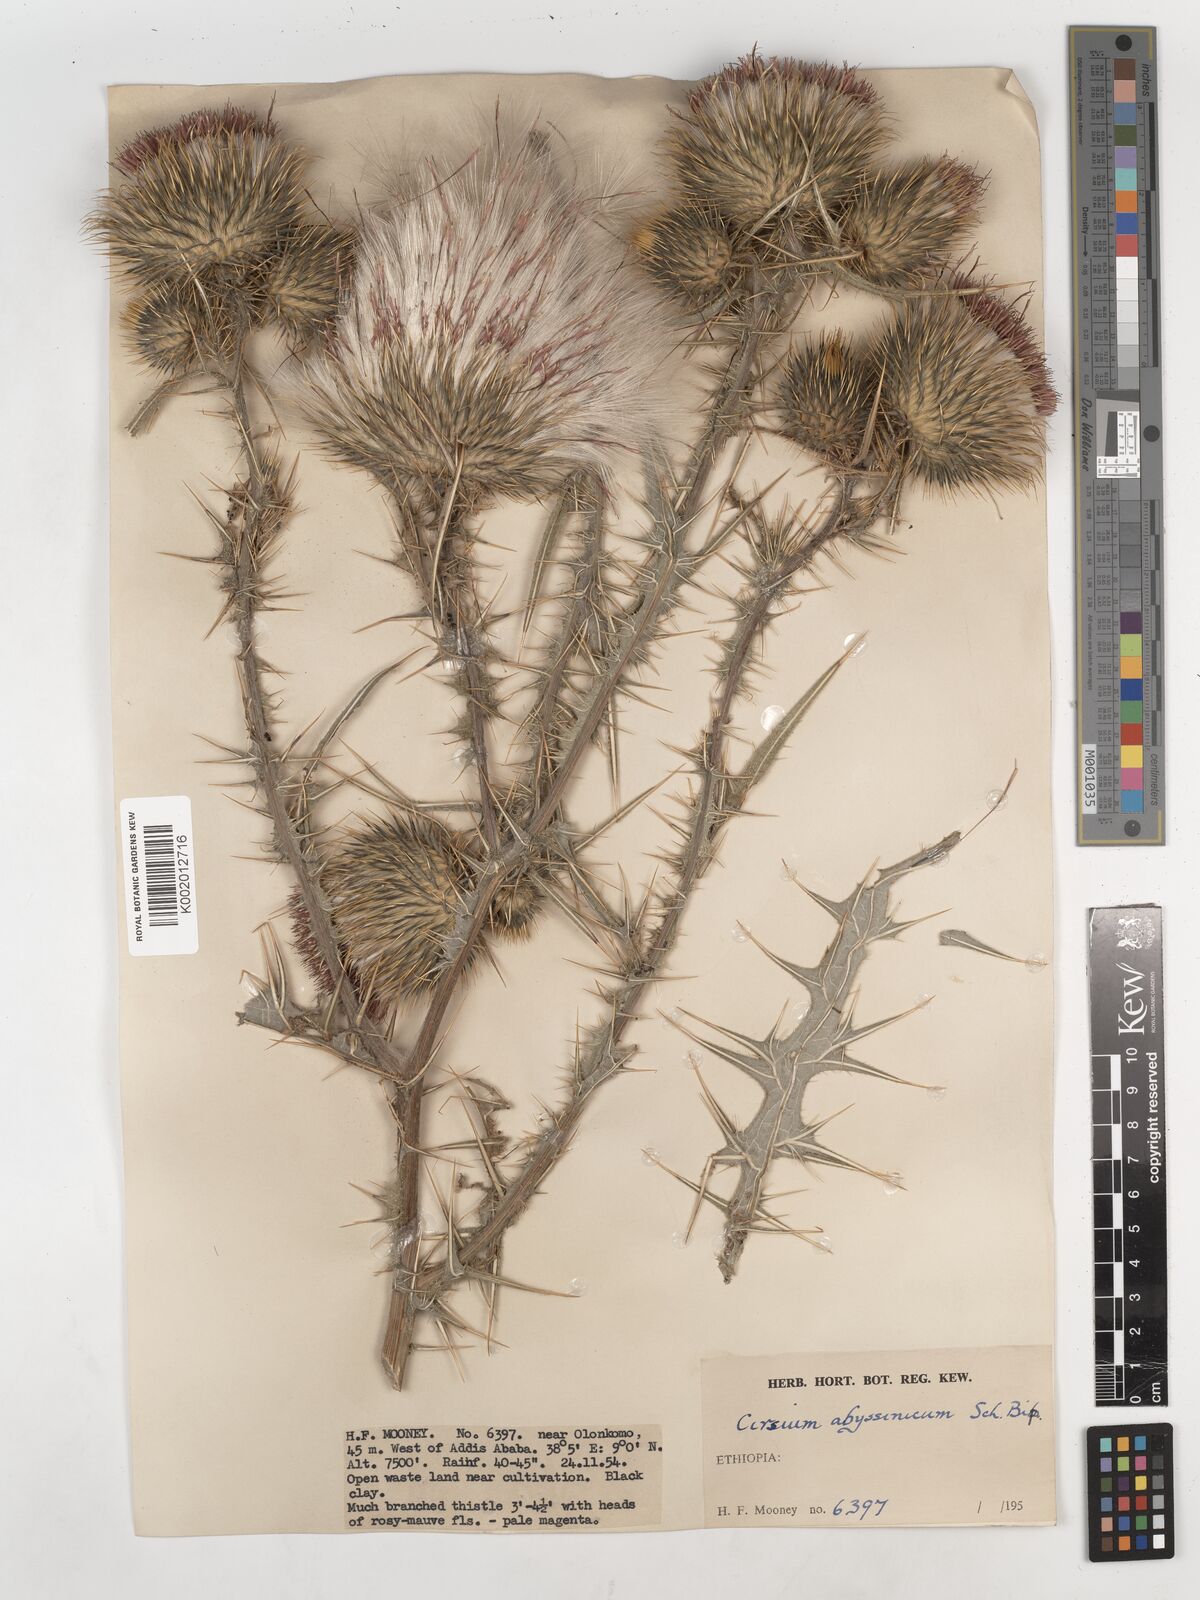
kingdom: Plantae
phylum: Tracheophyta
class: Magnoliopsida
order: Asterales
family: Asteraceae
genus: Cirsium
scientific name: Cirsium vulgare
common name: Bull thistle
